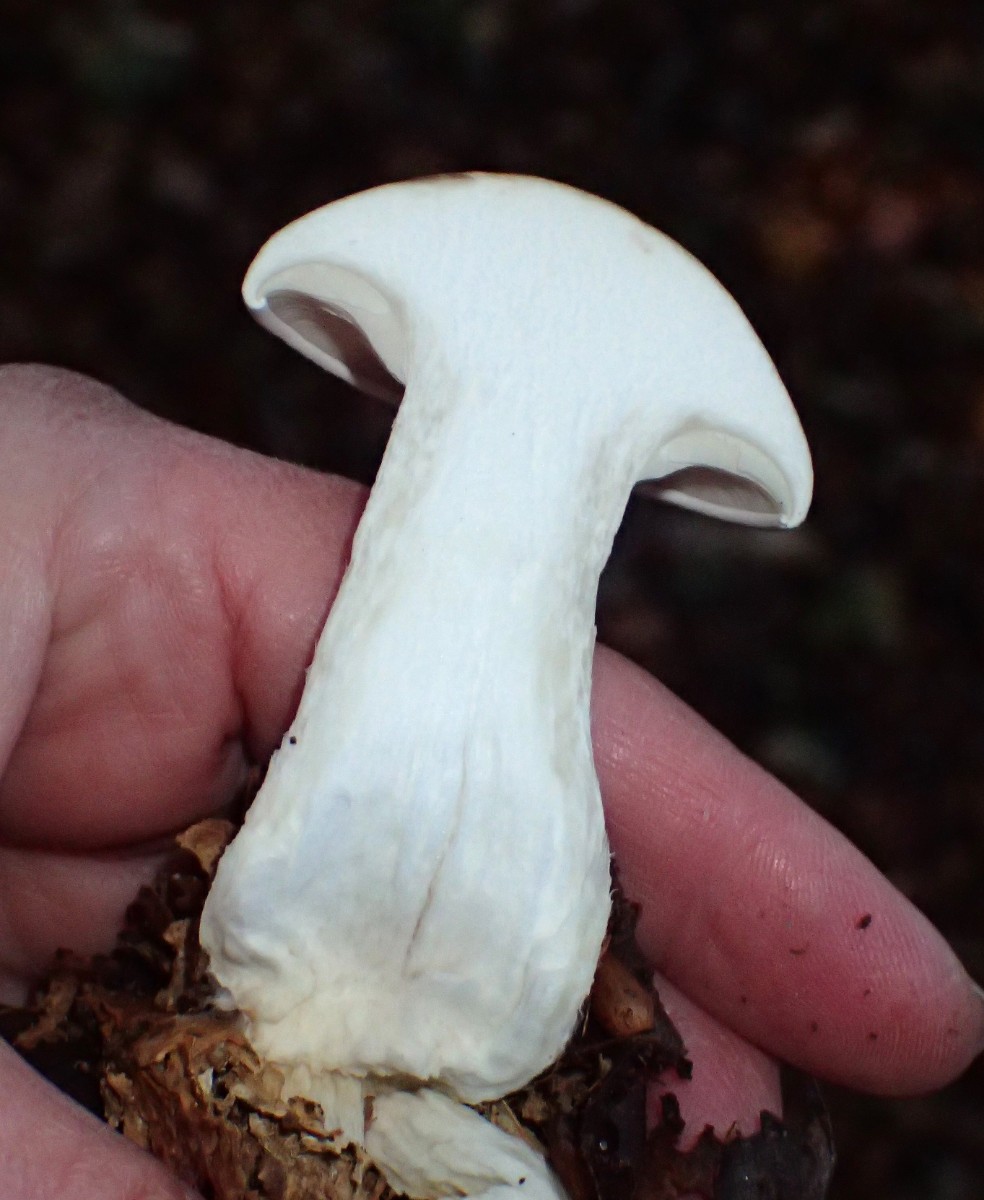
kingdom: Fungi
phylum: Basidiomycota
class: Agaricomycetes
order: Agaricales
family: Tricholomataceae
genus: Clitocybe
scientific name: Clitocybe nebularis
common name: tåge-tragthat
